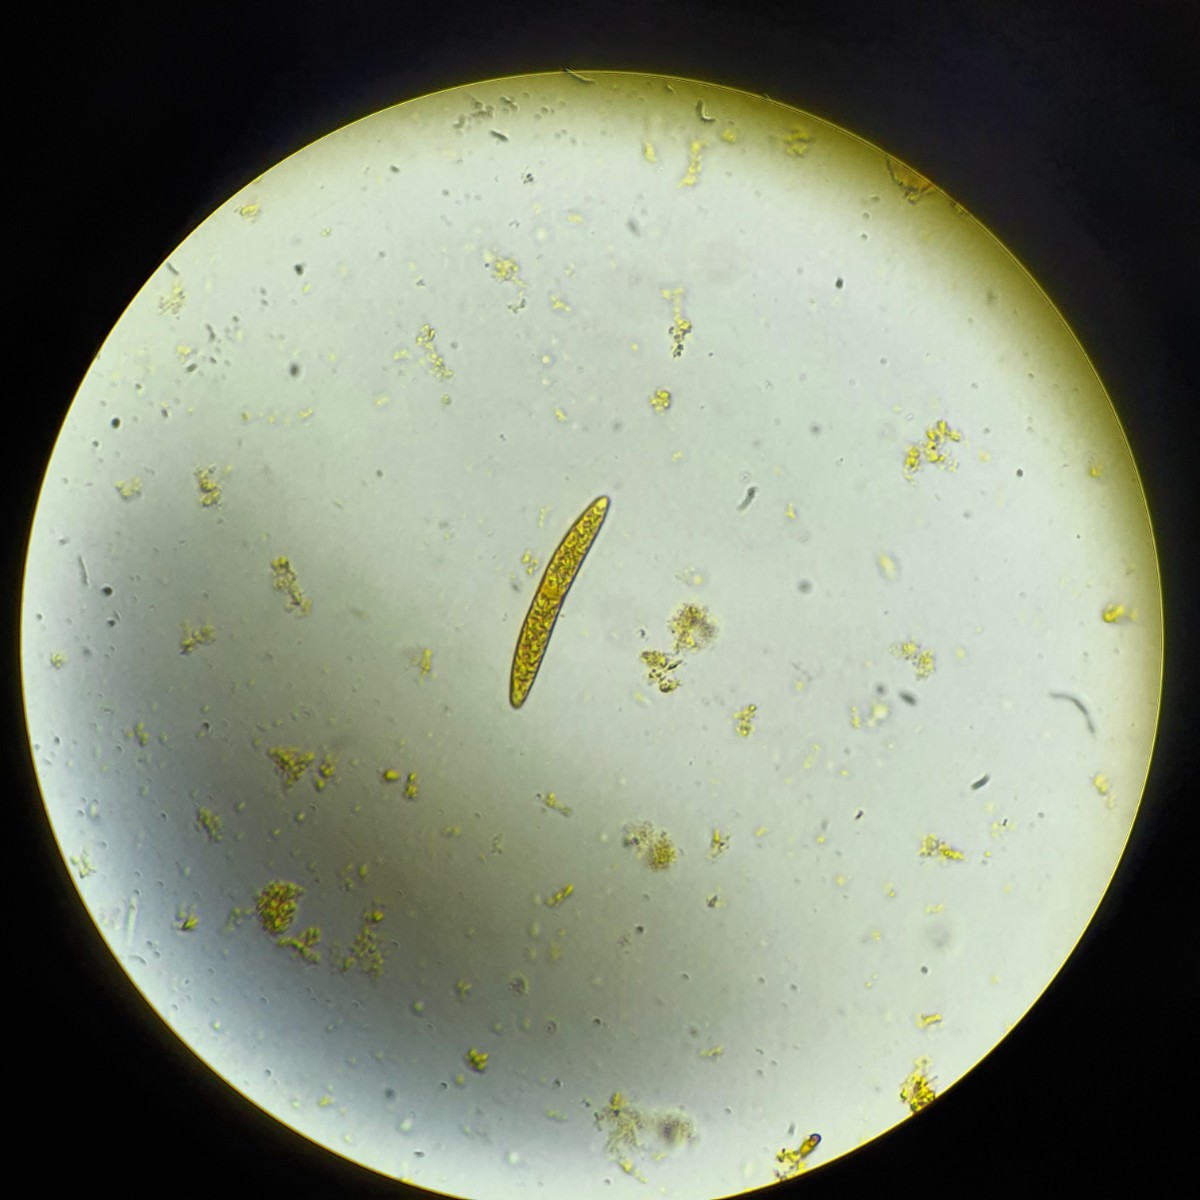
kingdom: Fungi
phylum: Ascomycota
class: Sordariomycetes
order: Coronophorales
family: Bertiaceae
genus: Bertia
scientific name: Bertia moriformis
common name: almindelig morbærkerne
